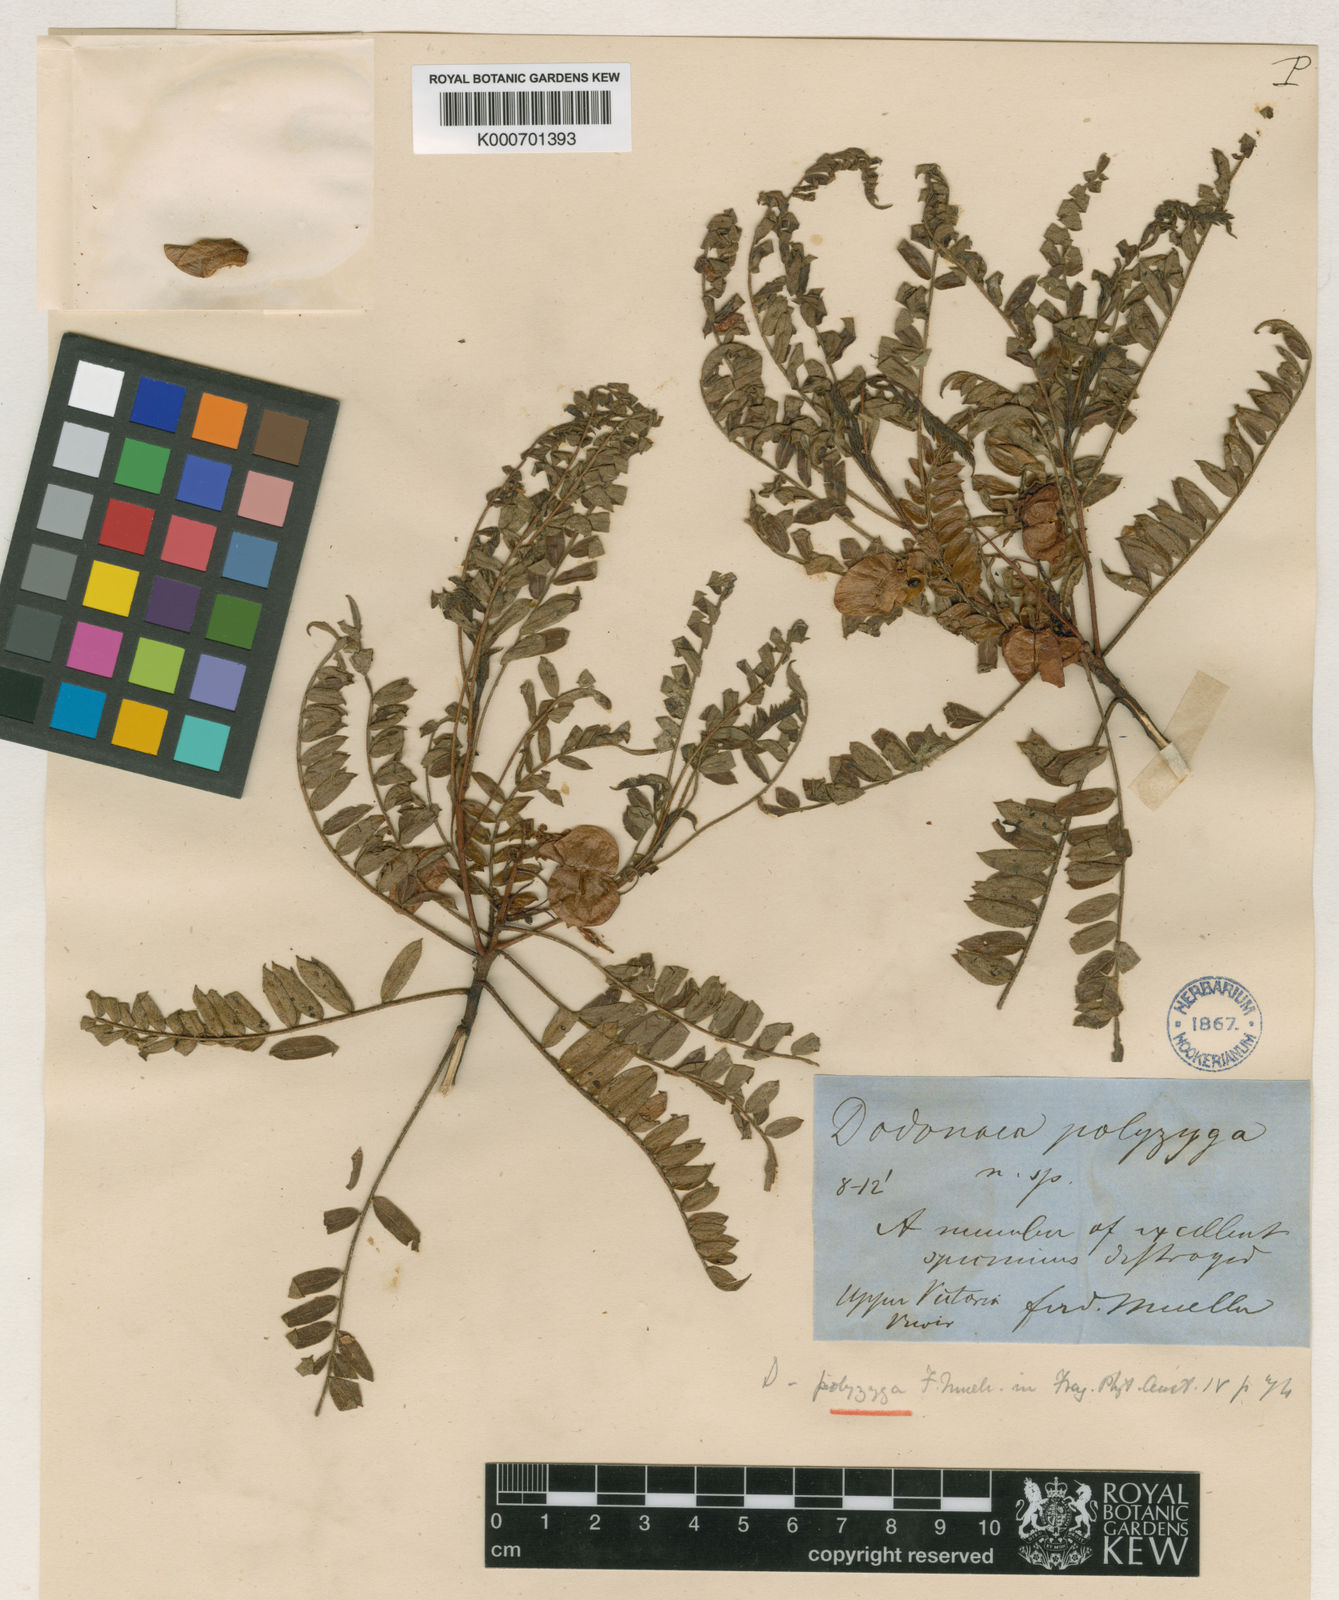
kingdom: Plantae
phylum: Tracheophyta
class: Magnoliopsida
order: Sapindales
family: Sapindaceae
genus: Dodonaea
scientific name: Dodonaea polyzyga
